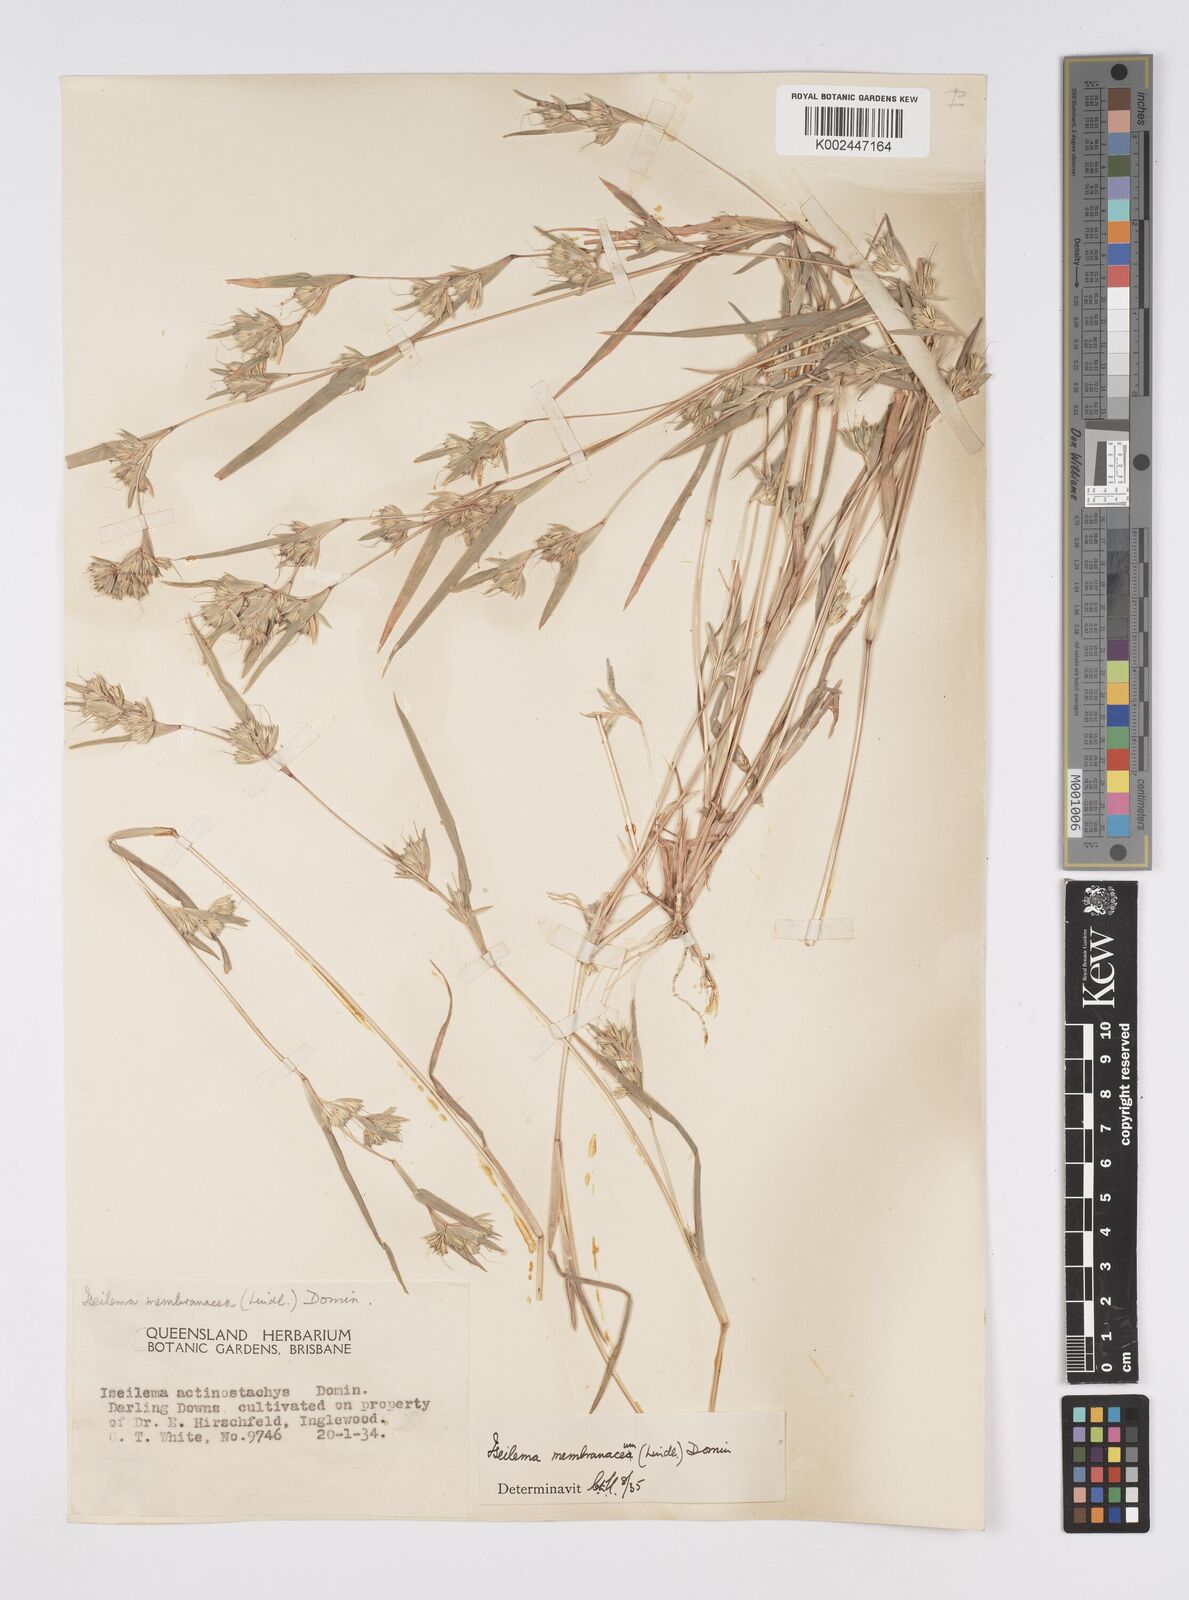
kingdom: Plantae
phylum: Tracheophyta
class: Liliopsida
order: Poales
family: Poaceae
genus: Iseilema
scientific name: Iseilema membranaceum
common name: Small flinders grass
